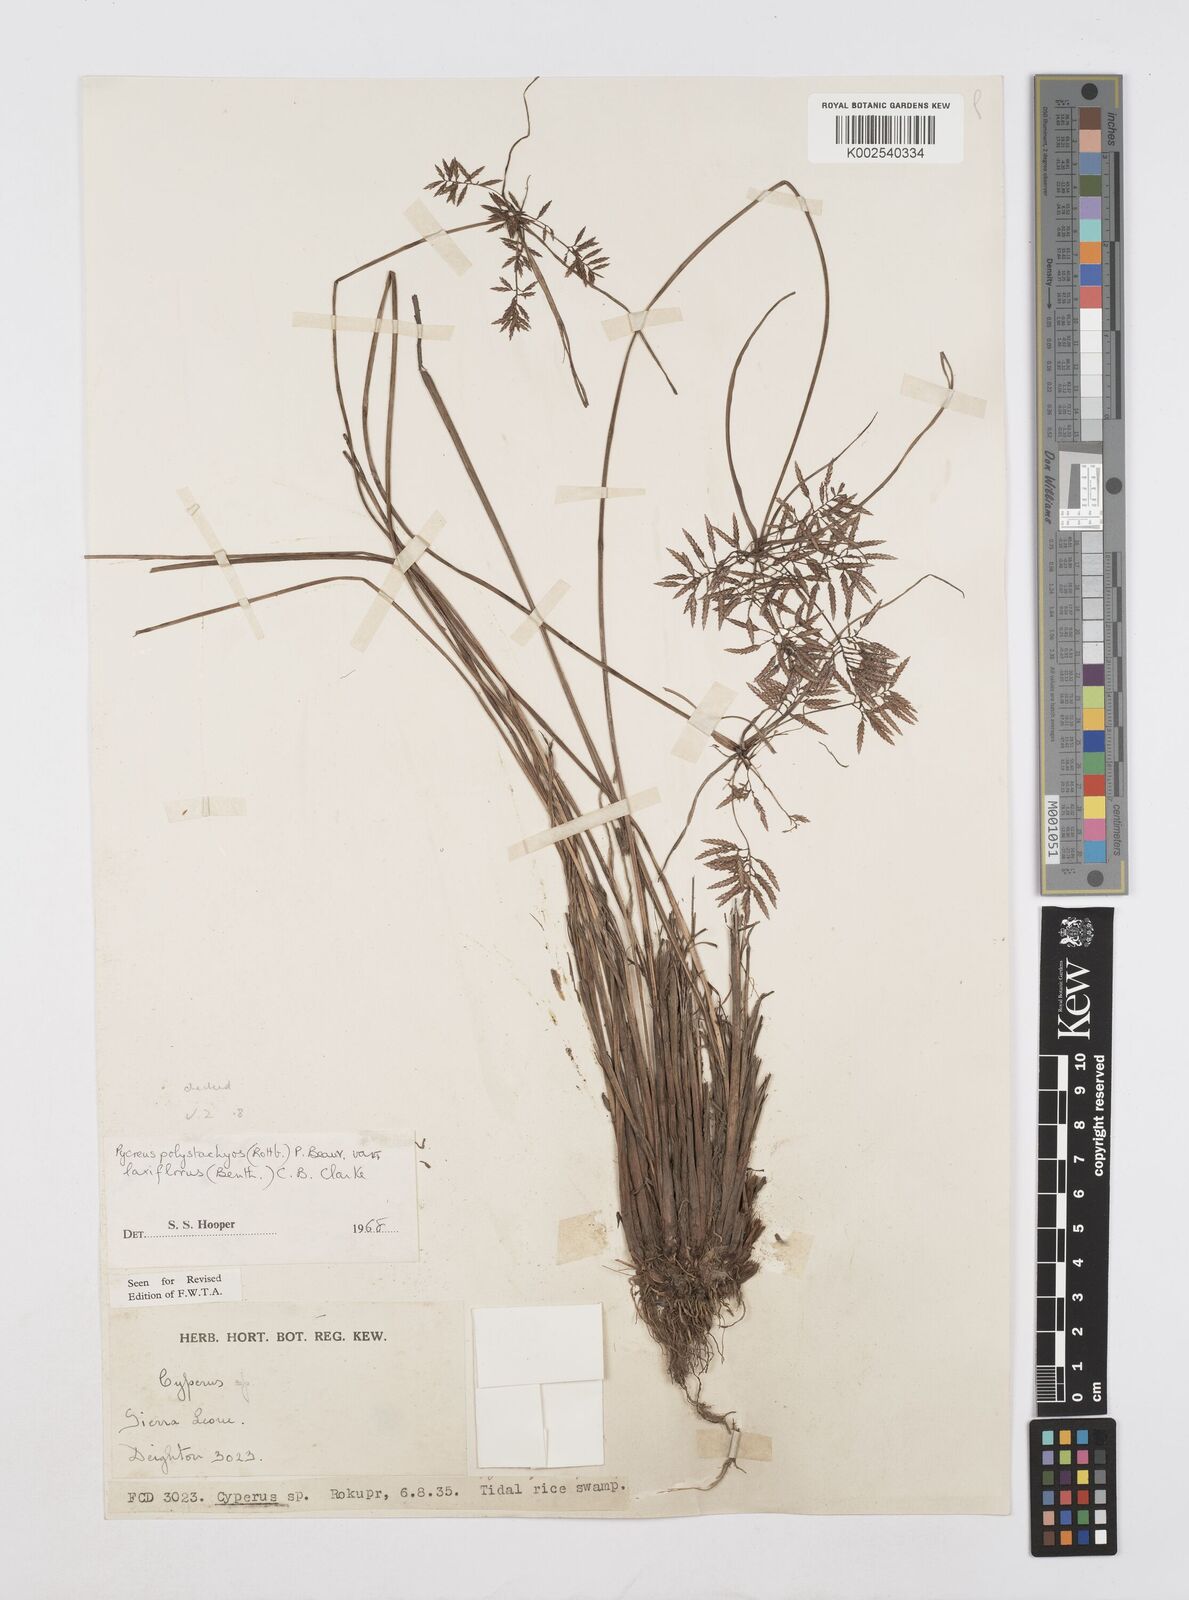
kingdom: Plantae
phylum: Tracheophyta
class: Liliopsida
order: Poales
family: Cyperaceae
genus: Cyperus
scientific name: Cyperus polystachyos
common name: Bunchy flat sedge
